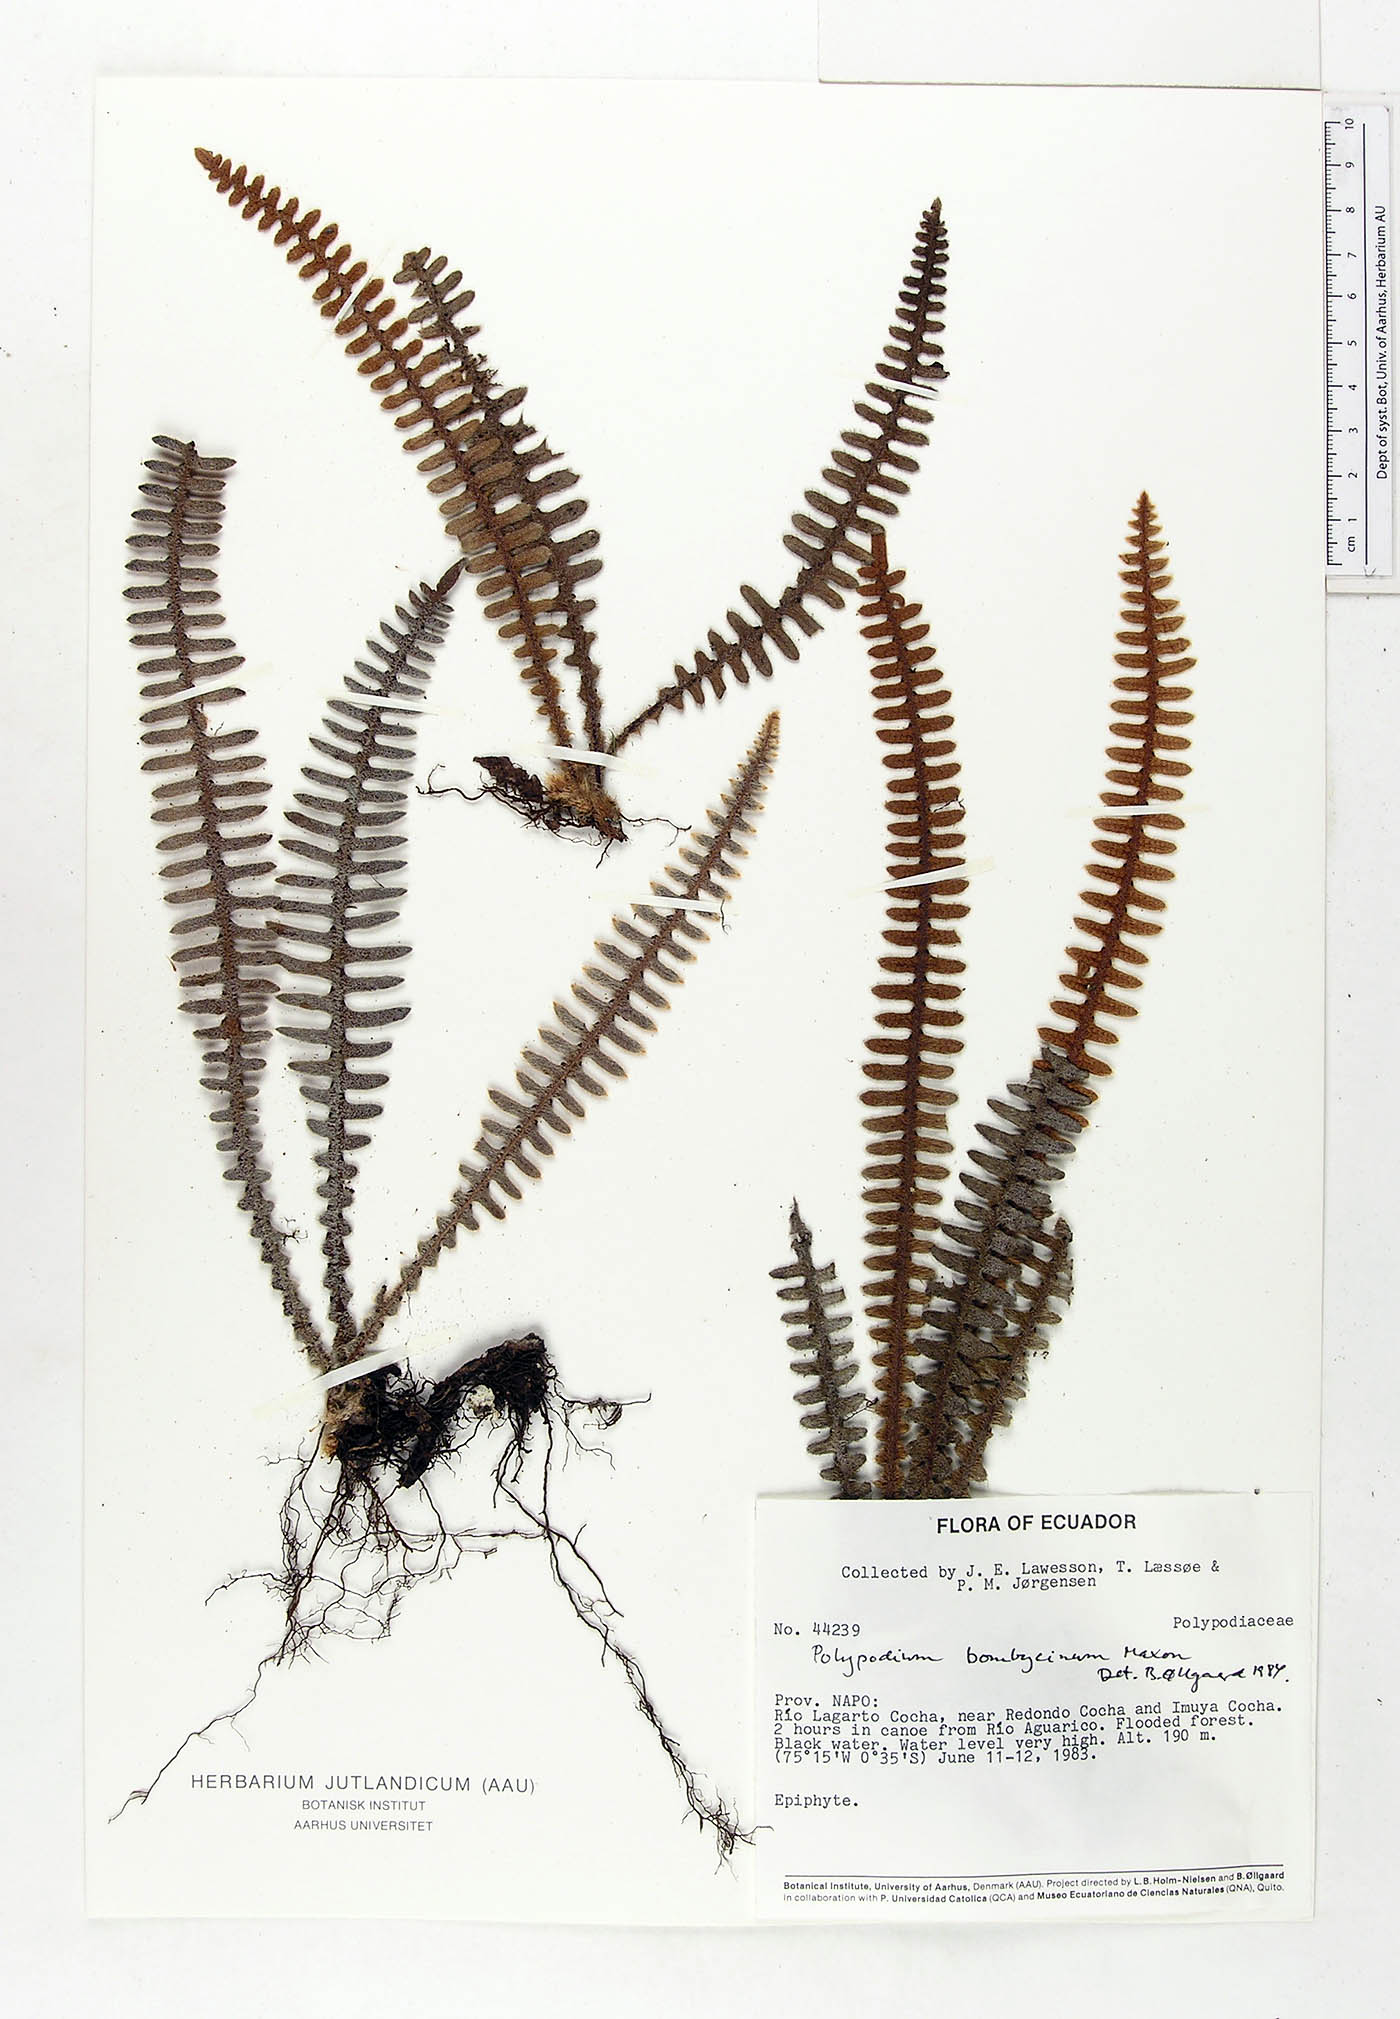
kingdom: Plantae
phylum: Tracheophyta
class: Polypodiopsida
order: Polypodiales
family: Polypodiaceae
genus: Pleopeltis
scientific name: Pleopeltis bombycina
